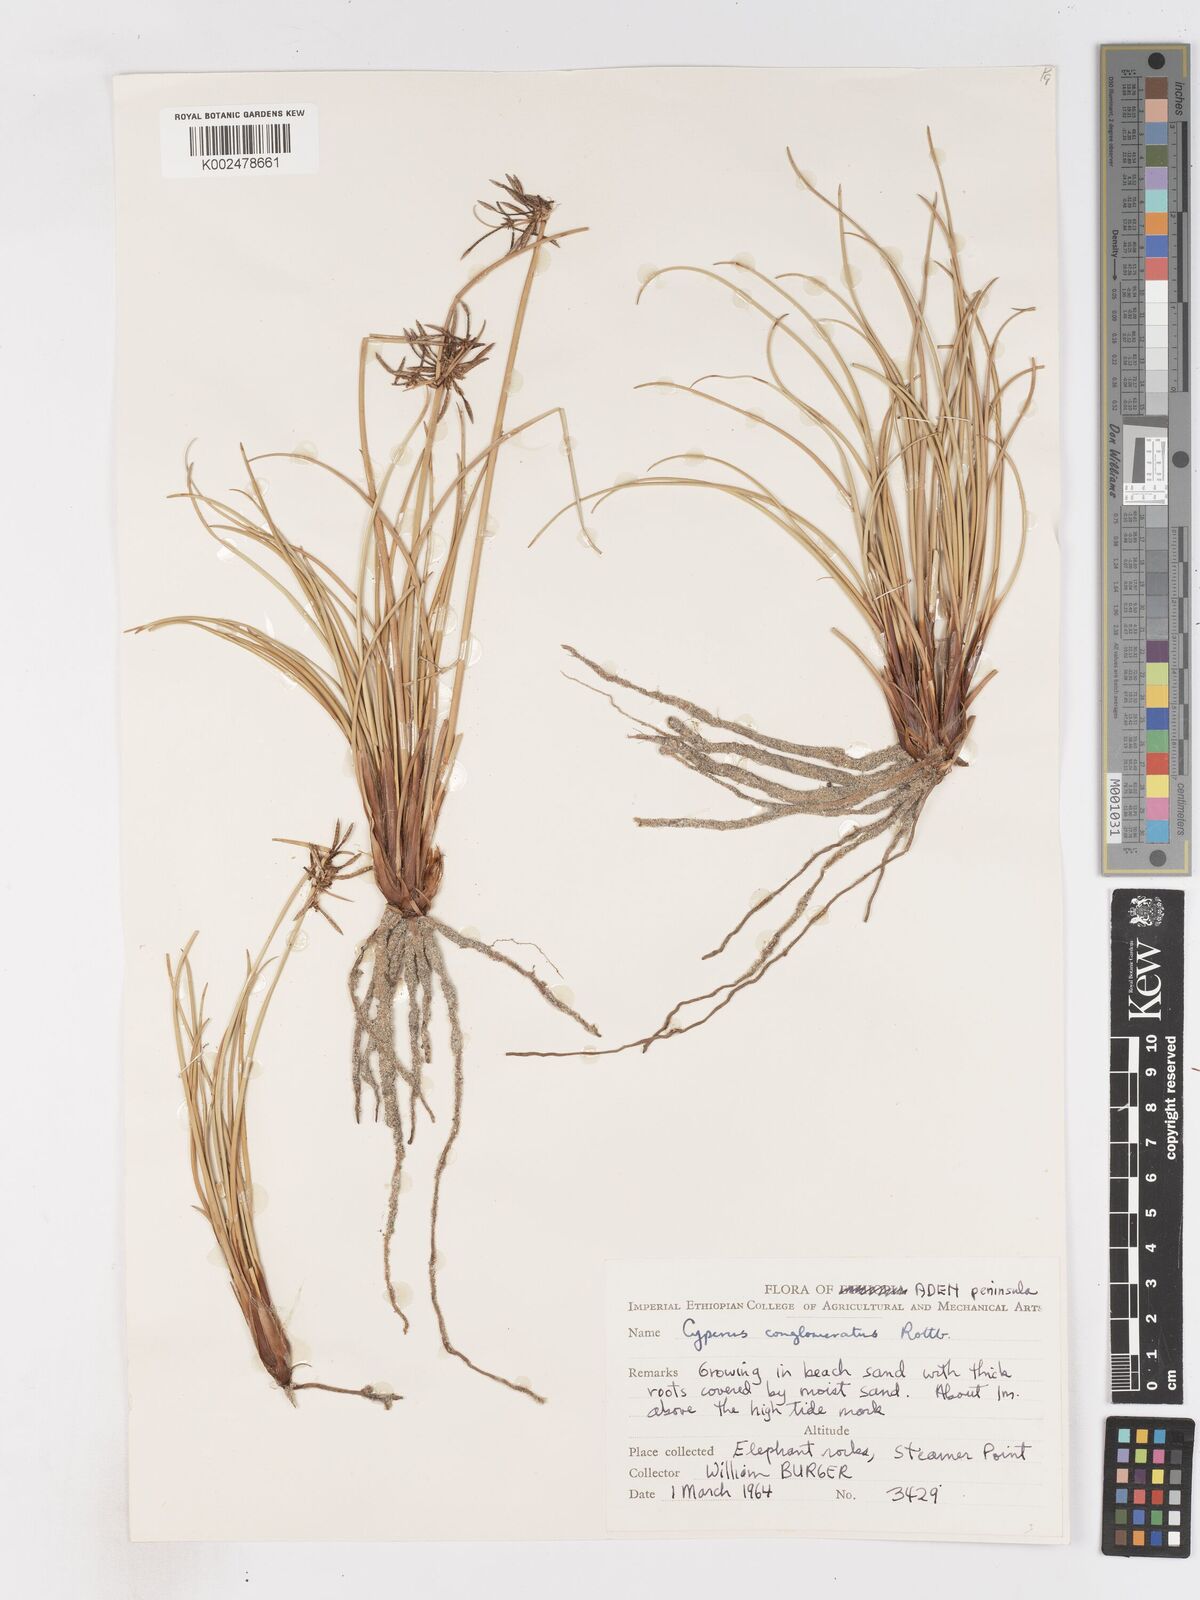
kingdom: Plantae
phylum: Tracheophyta
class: Liliopsida
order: Poales
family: Cyperaceae
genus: Cyperus
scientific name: Cyperus conglomeratus
